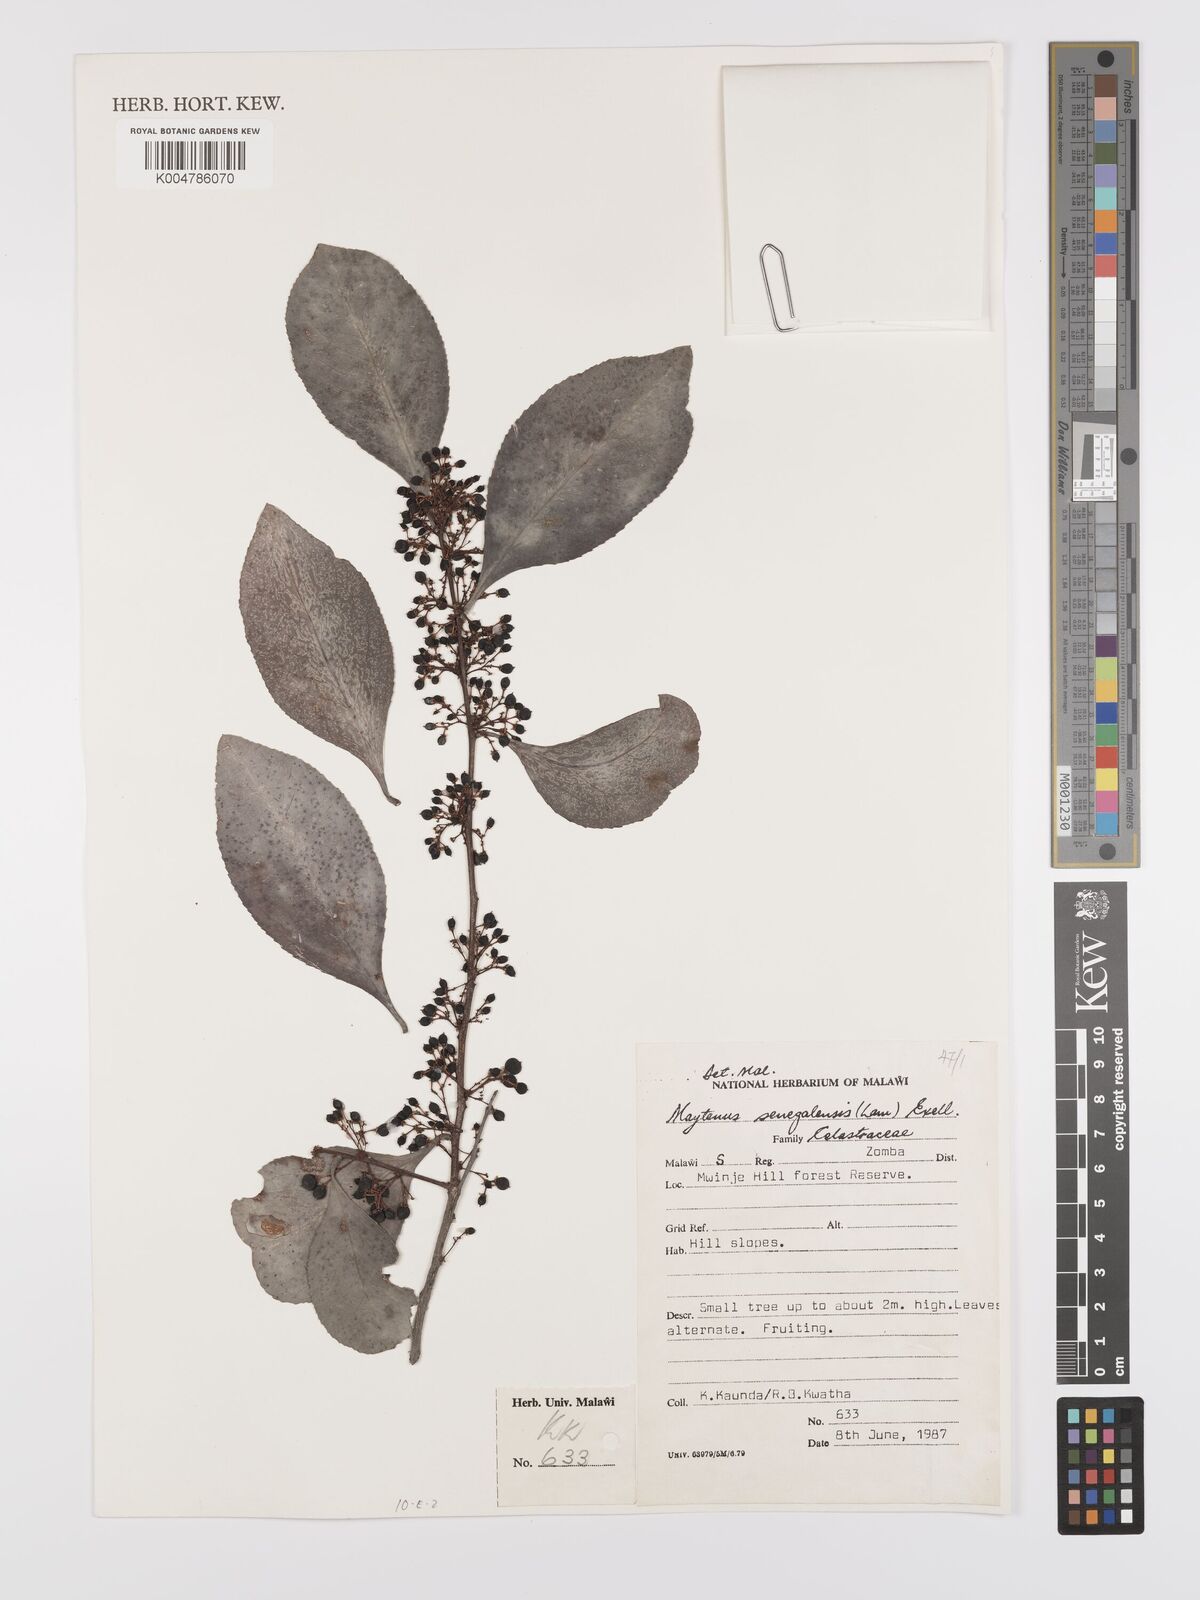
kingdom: Plantae
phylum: Tracheophyta
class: Magnoliopsida
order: Celastrales
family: Celastraceae
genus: Gymnosporia
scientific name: Gymnosporia senegalensis
